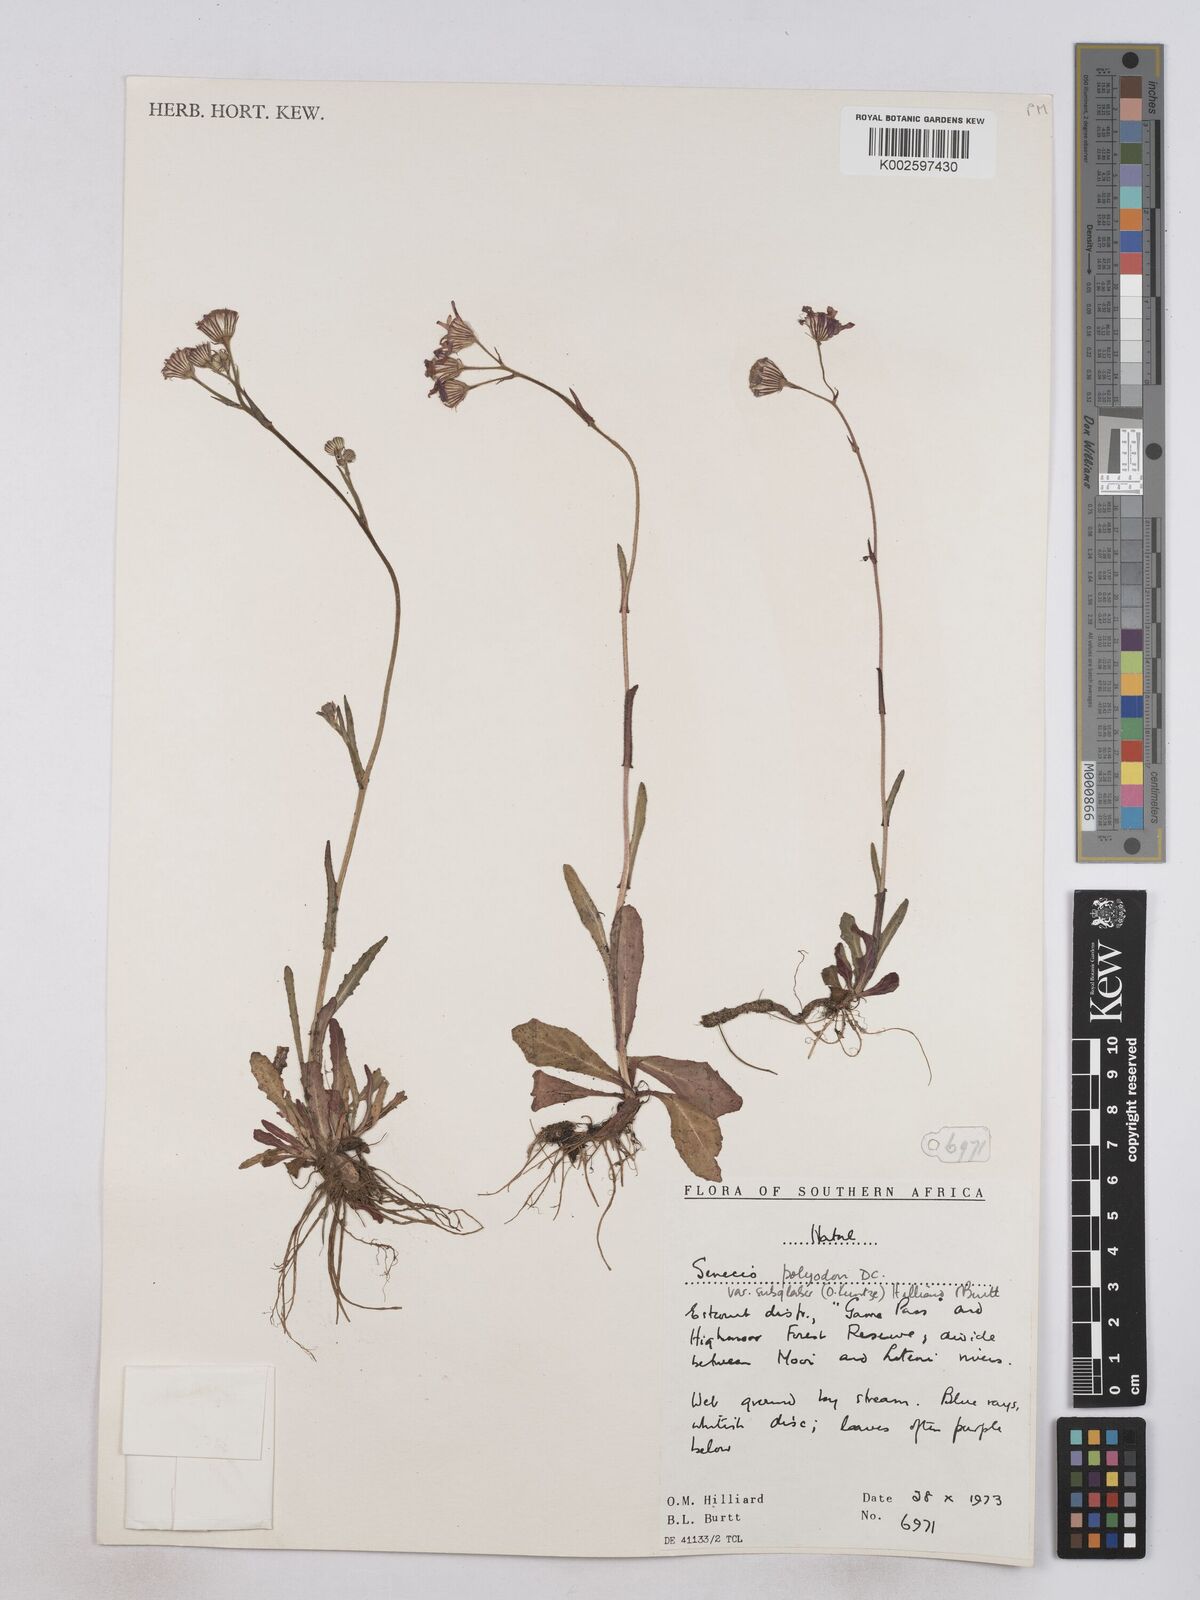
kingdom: Plantae
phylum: Tracheophyta
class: Magnoliopsida
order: Asterales
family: Asteraceae
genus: Senecio
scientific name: Senecio polyodon
